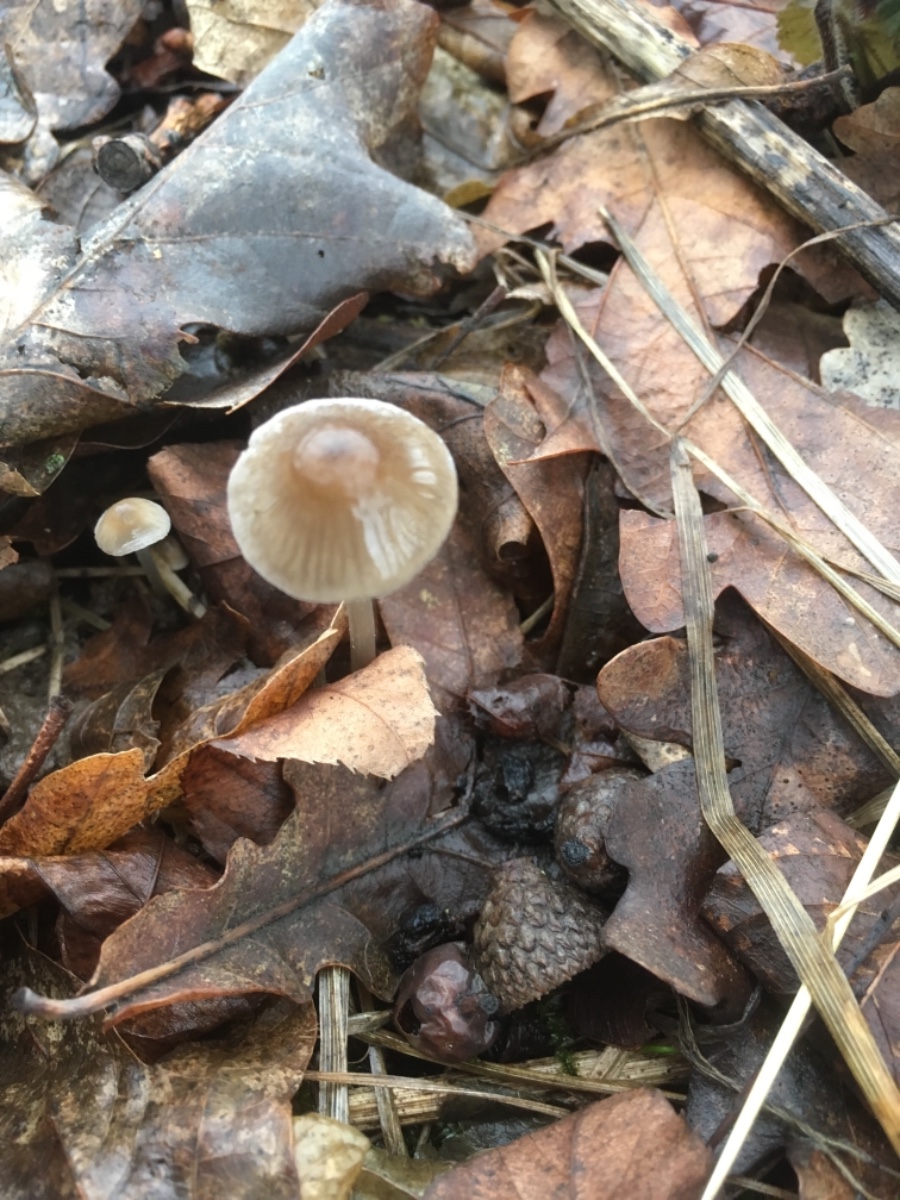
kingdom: Fungi
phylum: Basidiomycota
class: Agaricomycetes
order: Agaricales
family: Mycenaceae
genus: Mycena
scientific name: Mycena vitilis
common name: blankstokket huesvamp
